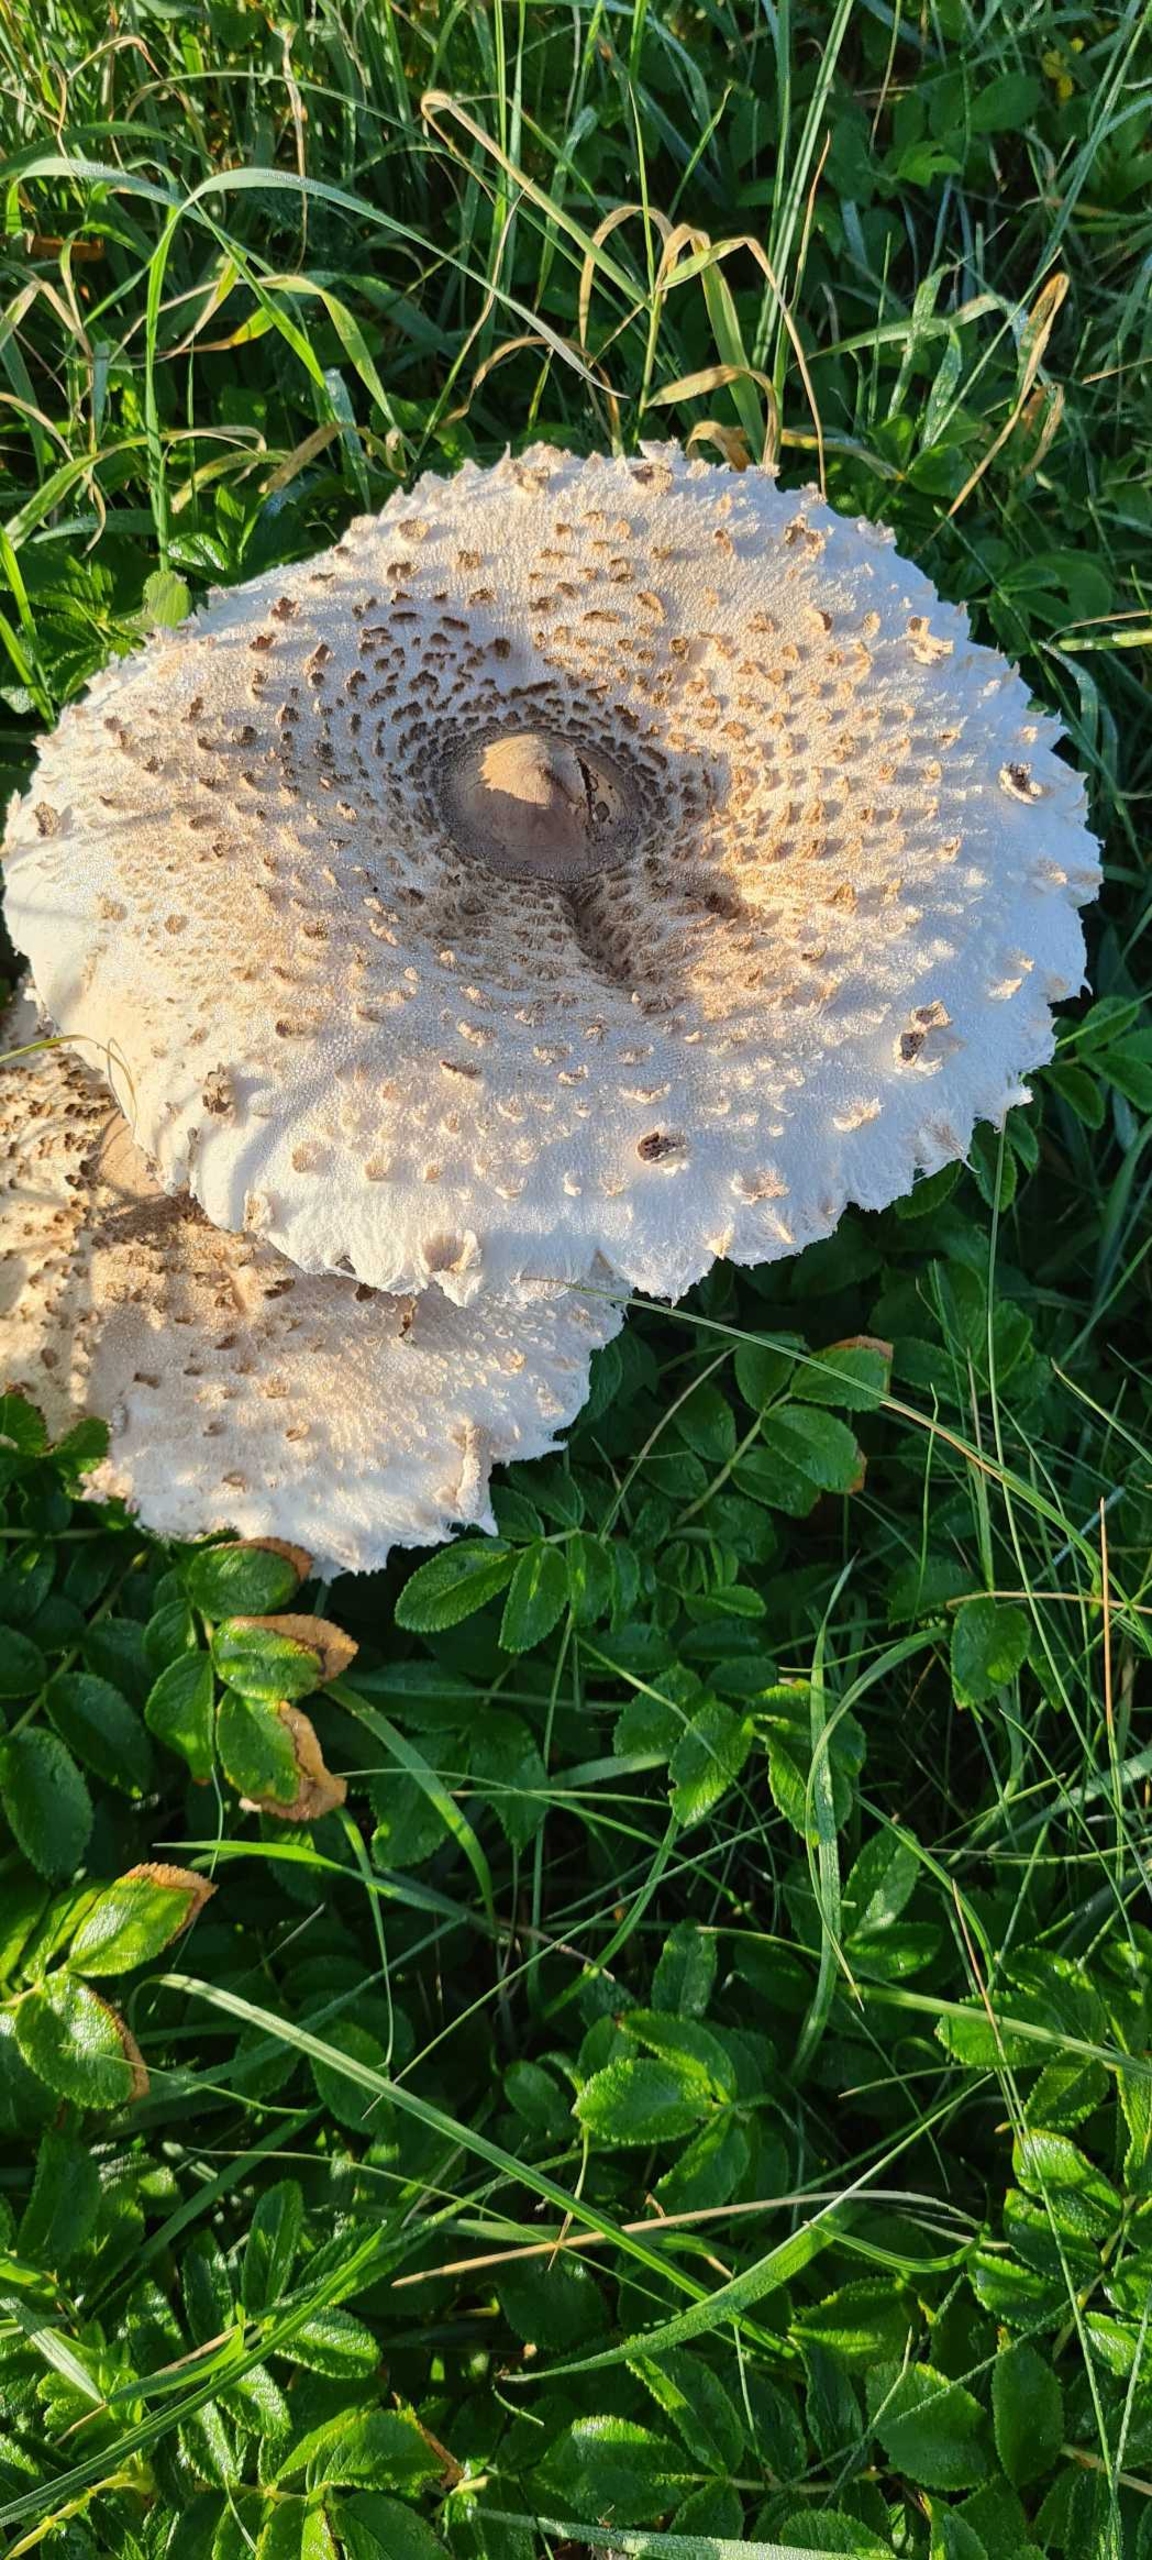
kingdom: Fungi
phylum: Basidiomycota
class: Agaricomycetes
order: Agaricales
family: Agaricaceae
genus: Macrolepiota
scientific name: Macrolepiota
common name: Kæmpeparasolhat
